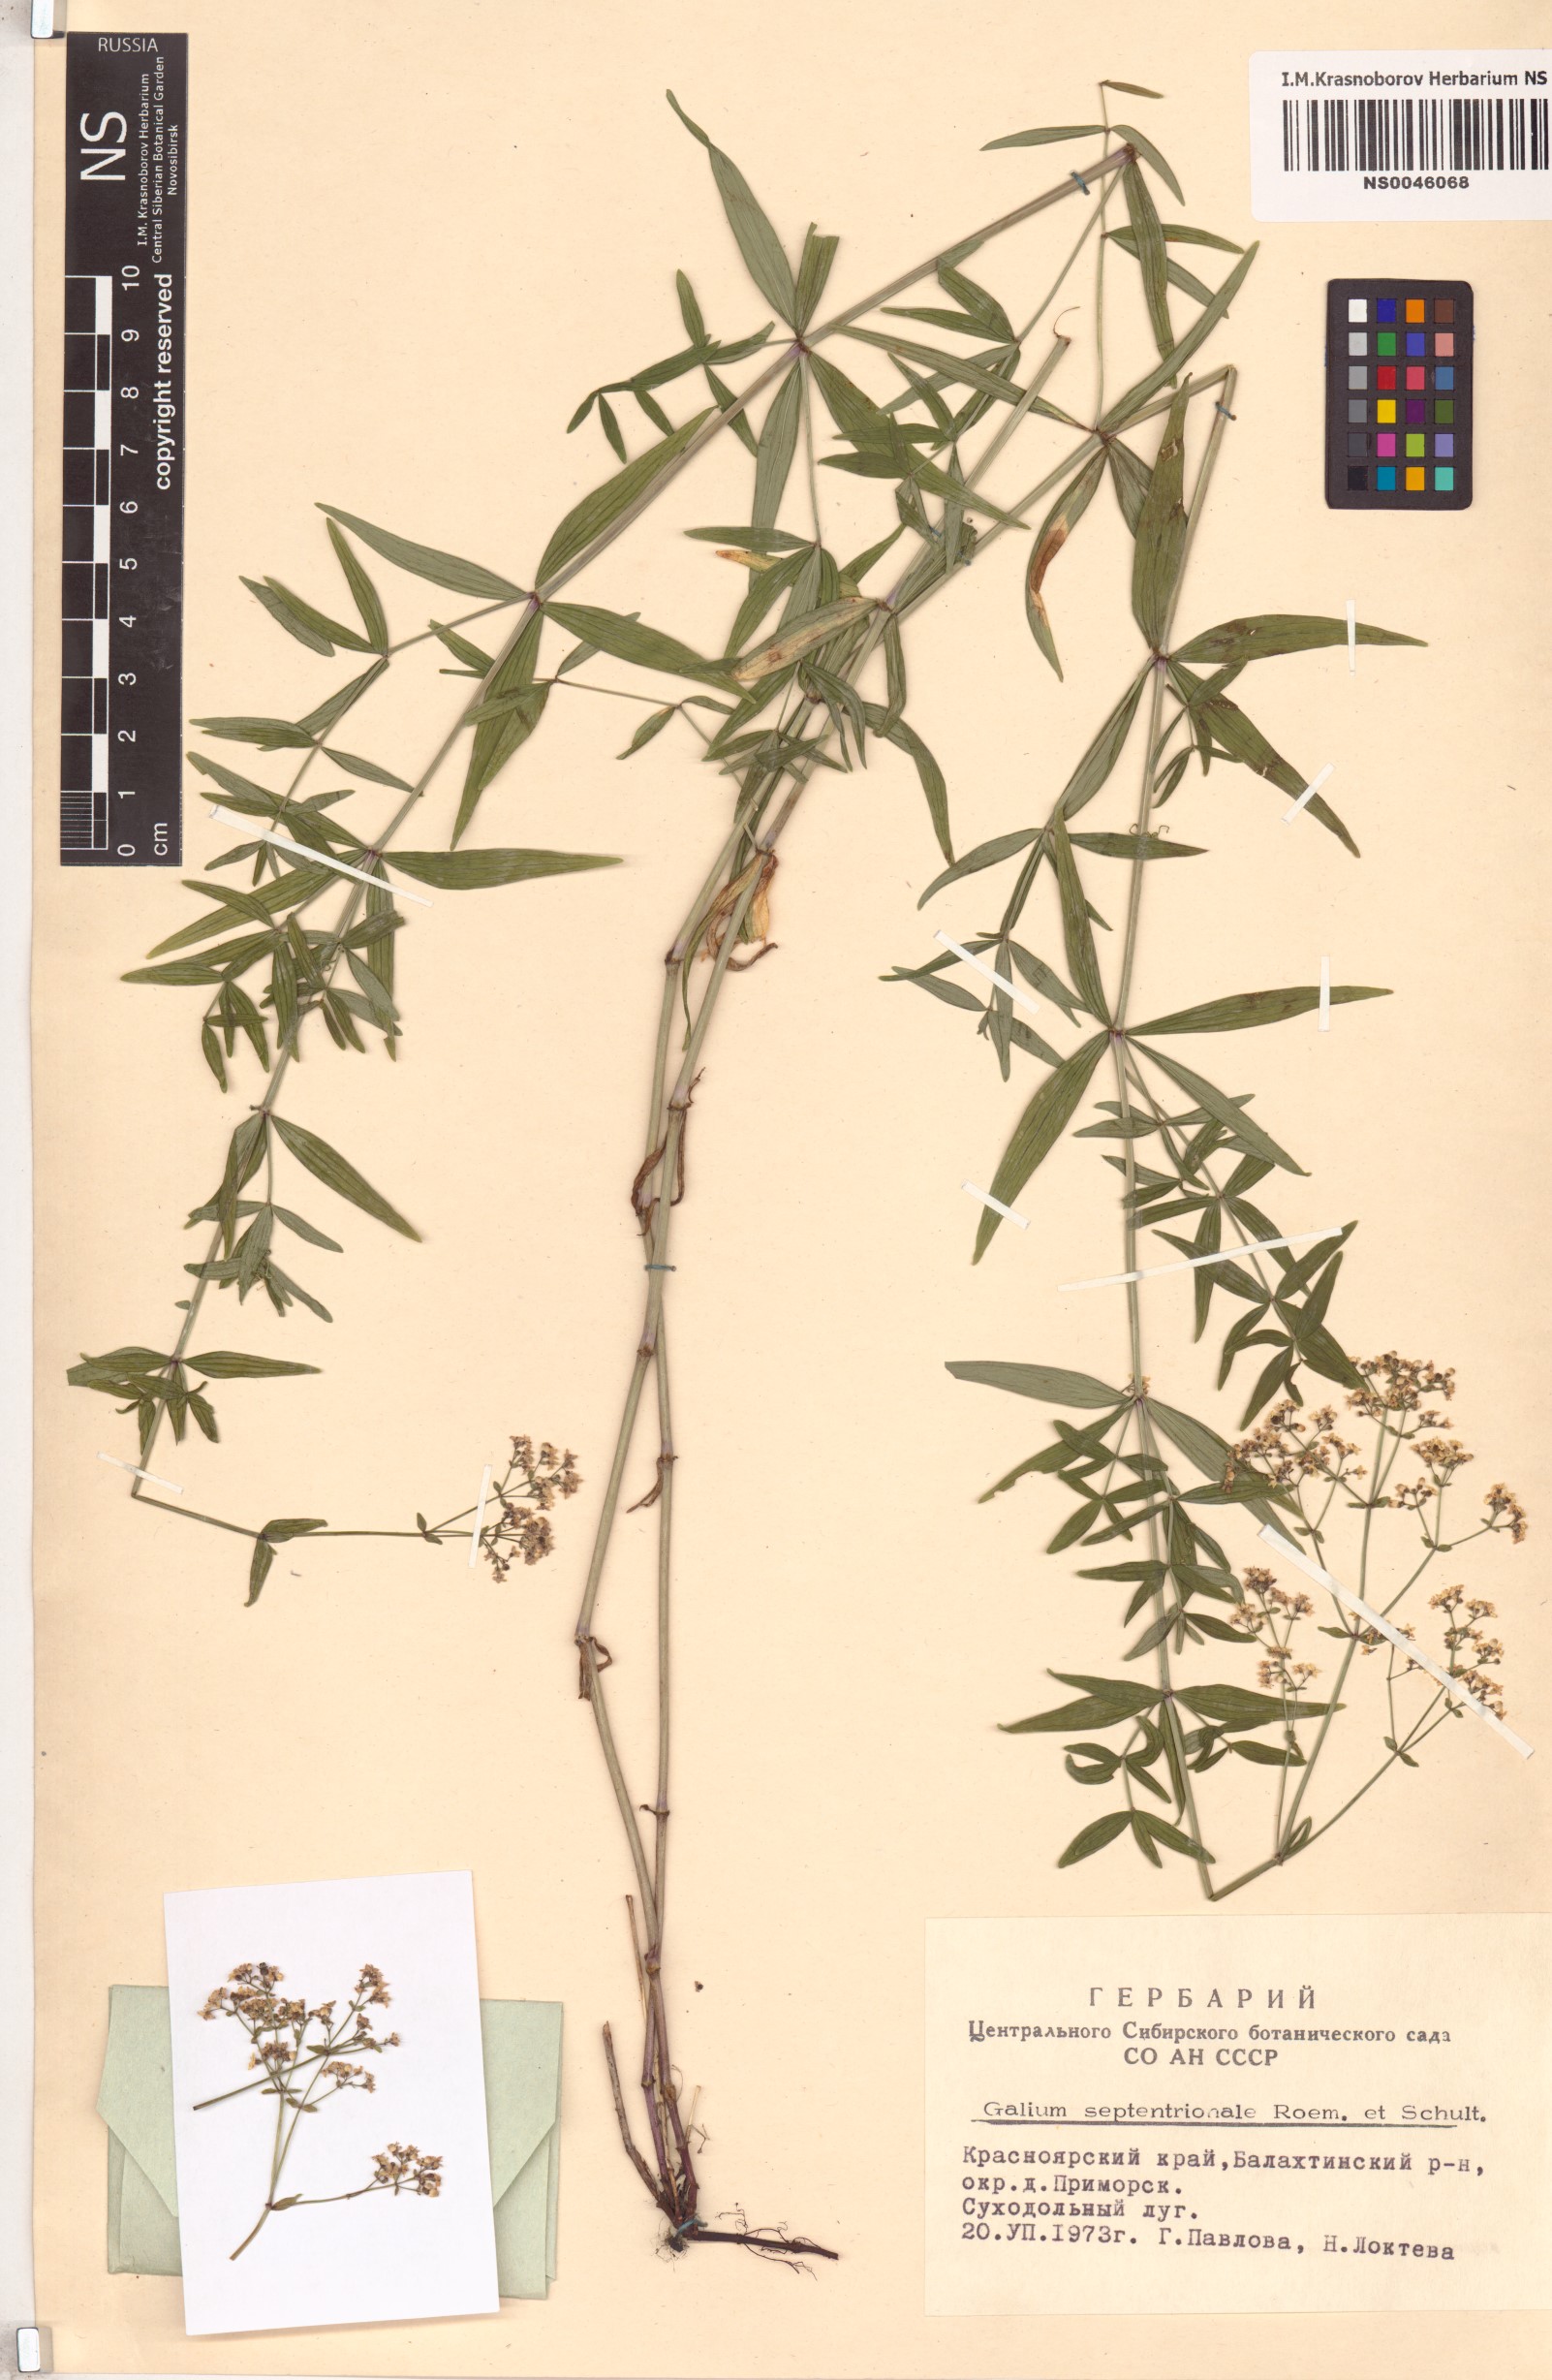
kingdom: Plantae
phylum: Tracheophyta
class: Magnoliopsida
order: Gentianales
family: Rubiaceae
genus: Galium
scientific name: Galium boreale
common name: Northern bedstraw
